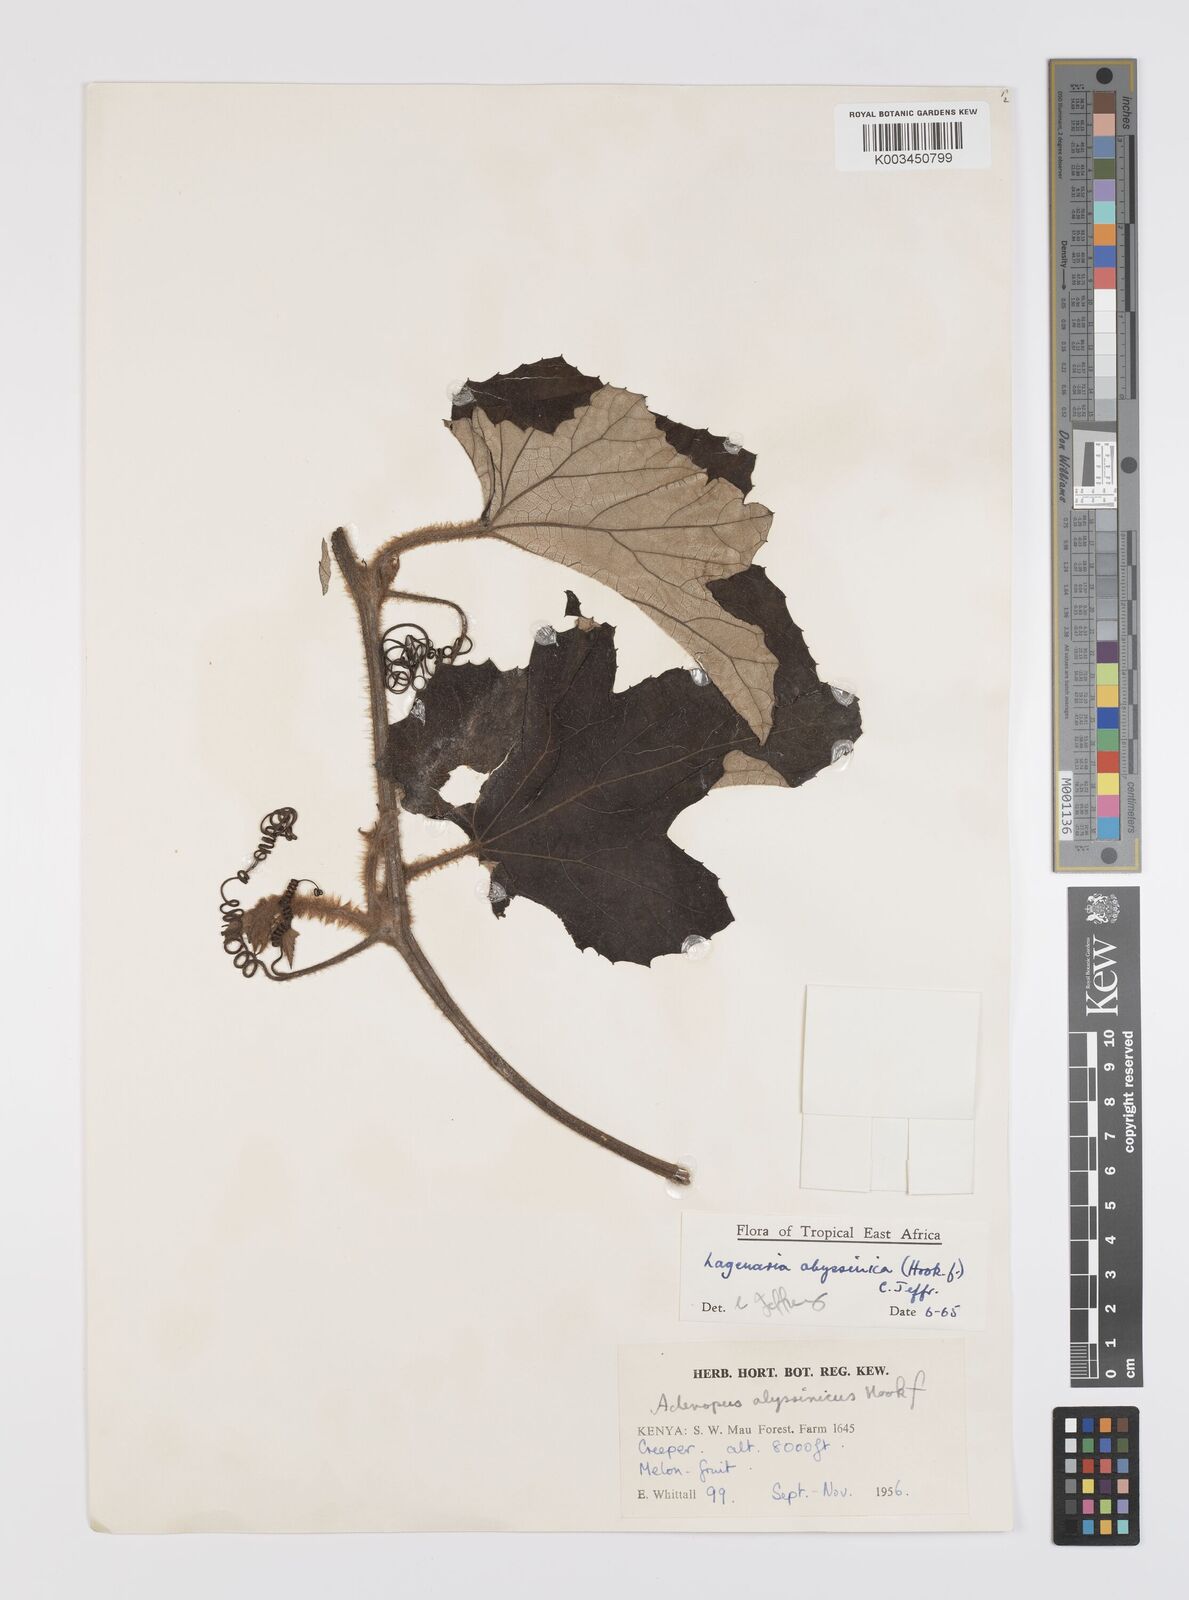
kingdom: Plantae
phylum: Tracheophyta
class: Magnoliopsida
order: Cucurbitales
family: Cucurbitaceae
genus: Lagenaria
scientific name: Lagenaria abyssinica
